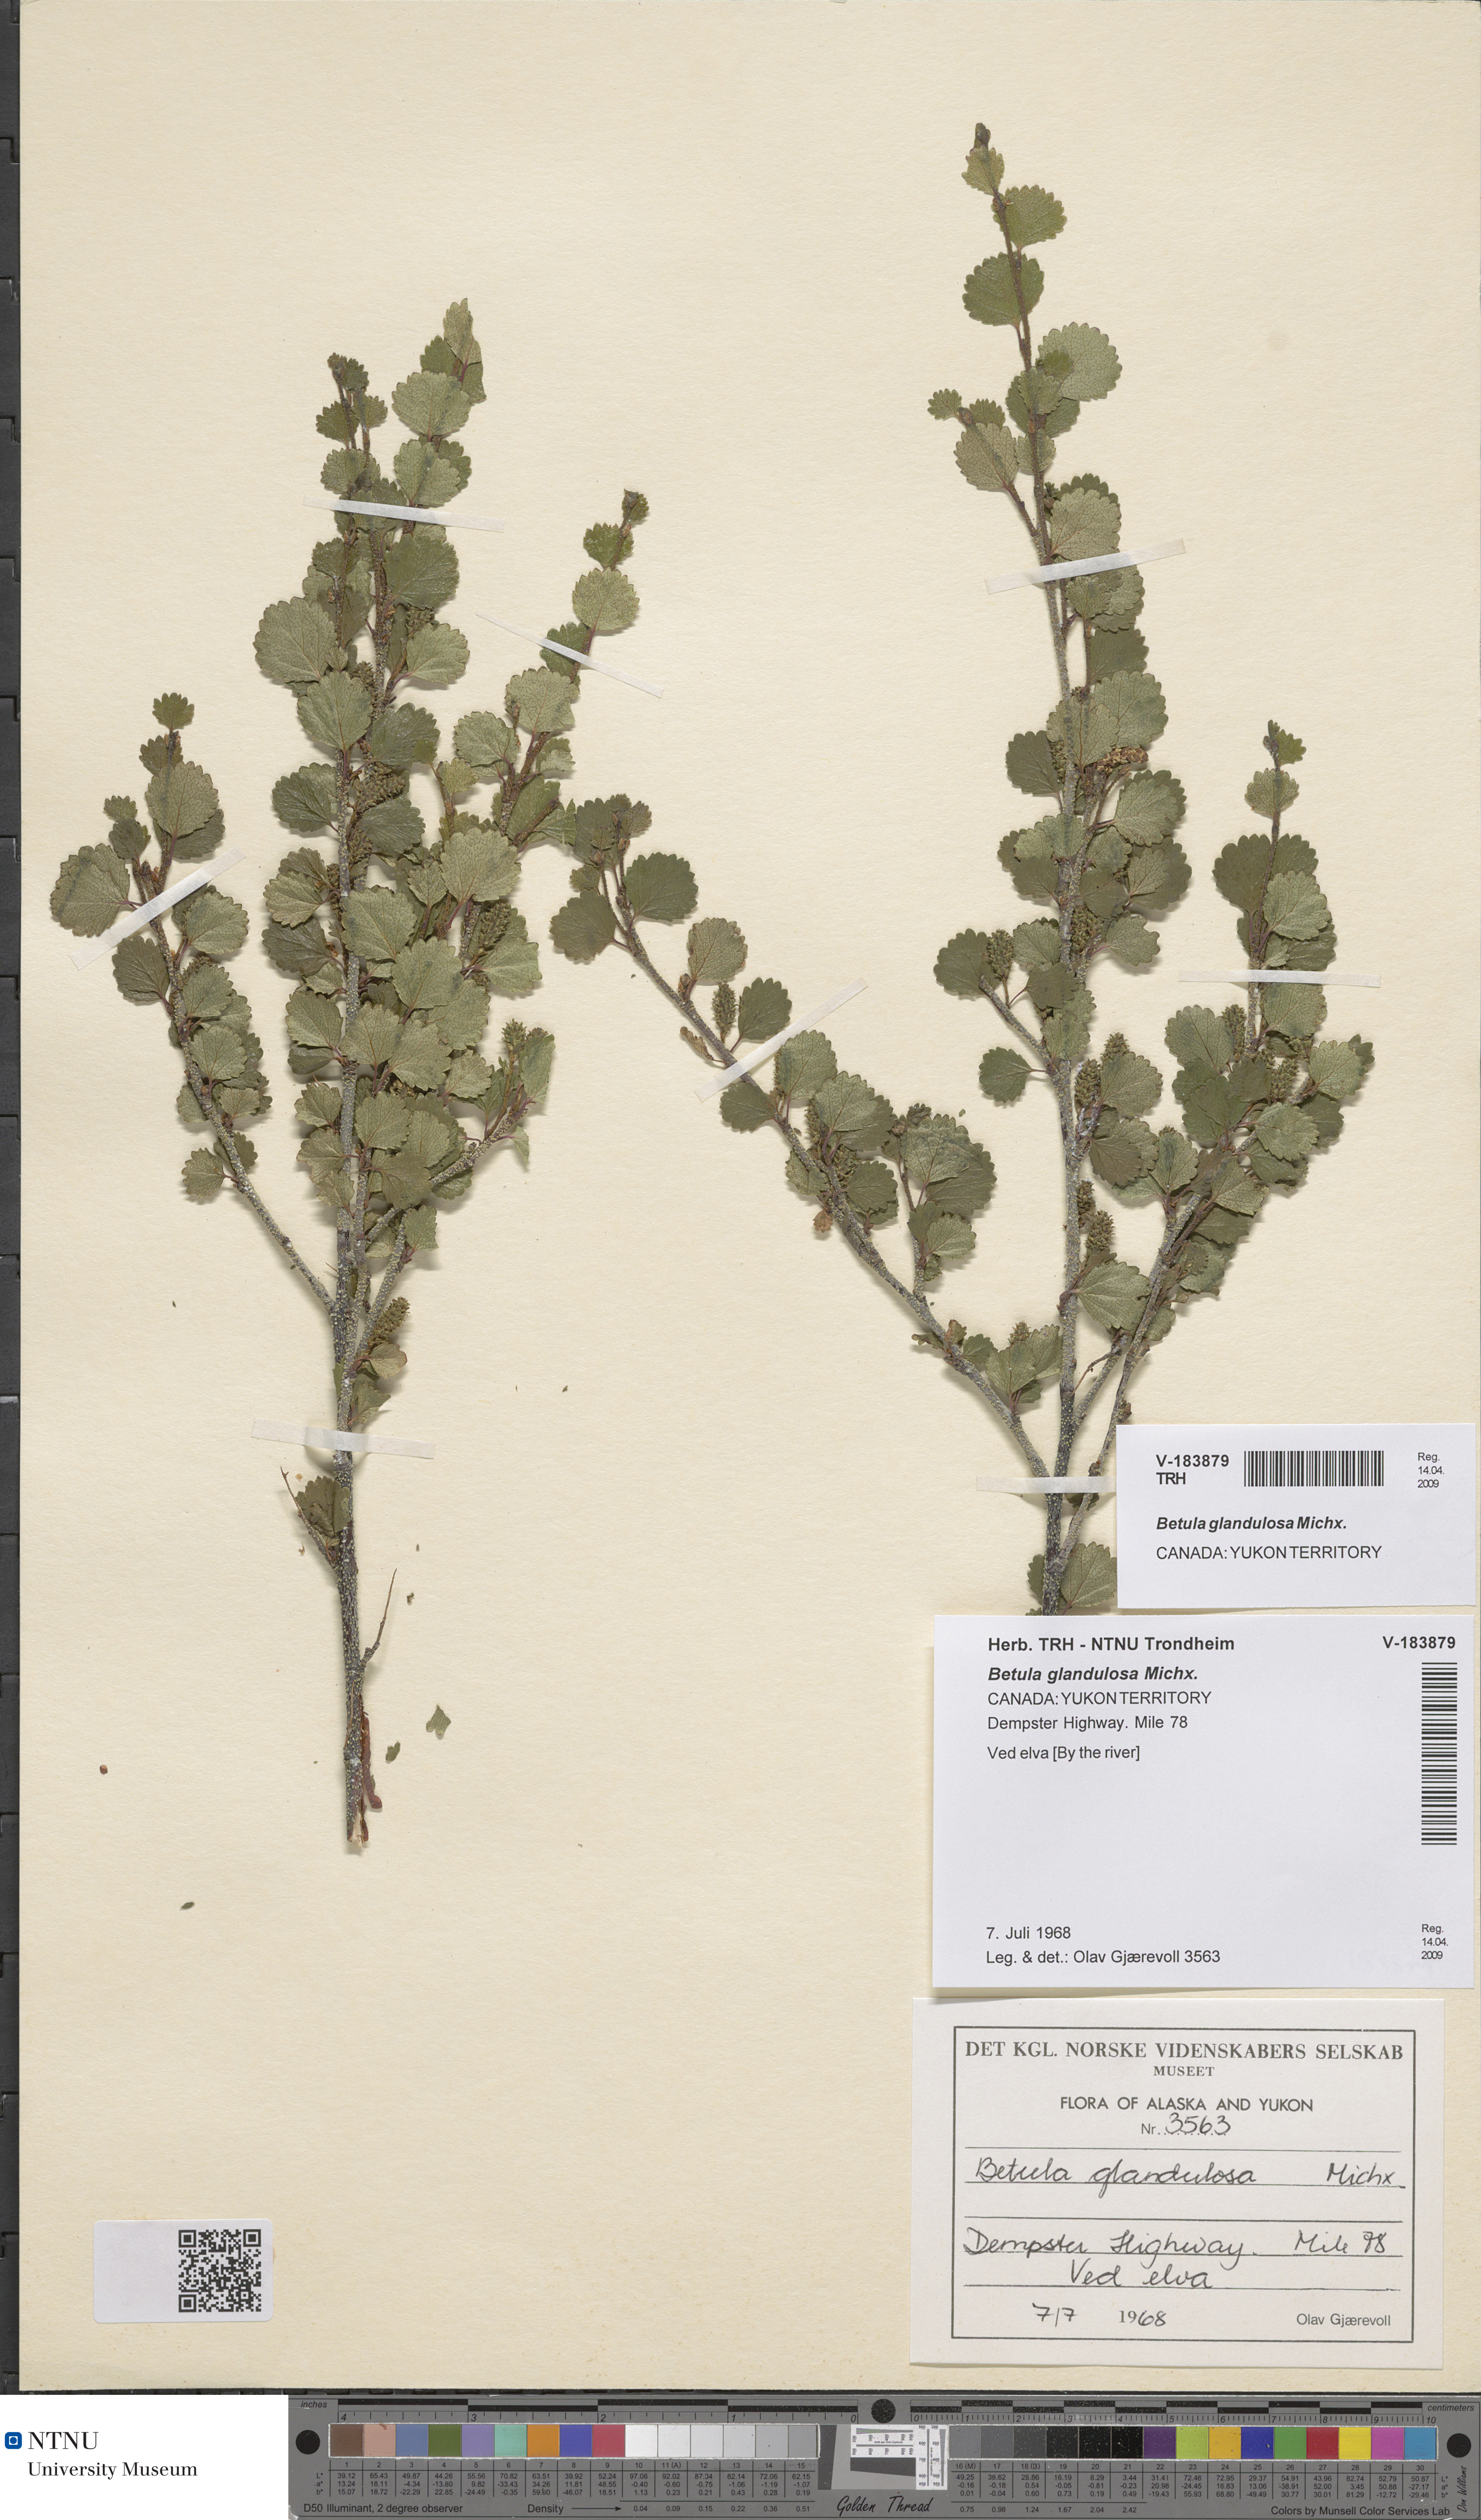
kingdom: Plantae
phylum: Tracheophyta
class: Magnoliopsida
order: Fagales
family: Betulaceae
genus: Betula
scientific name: Betula glandulosa
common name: Dwarf birch
